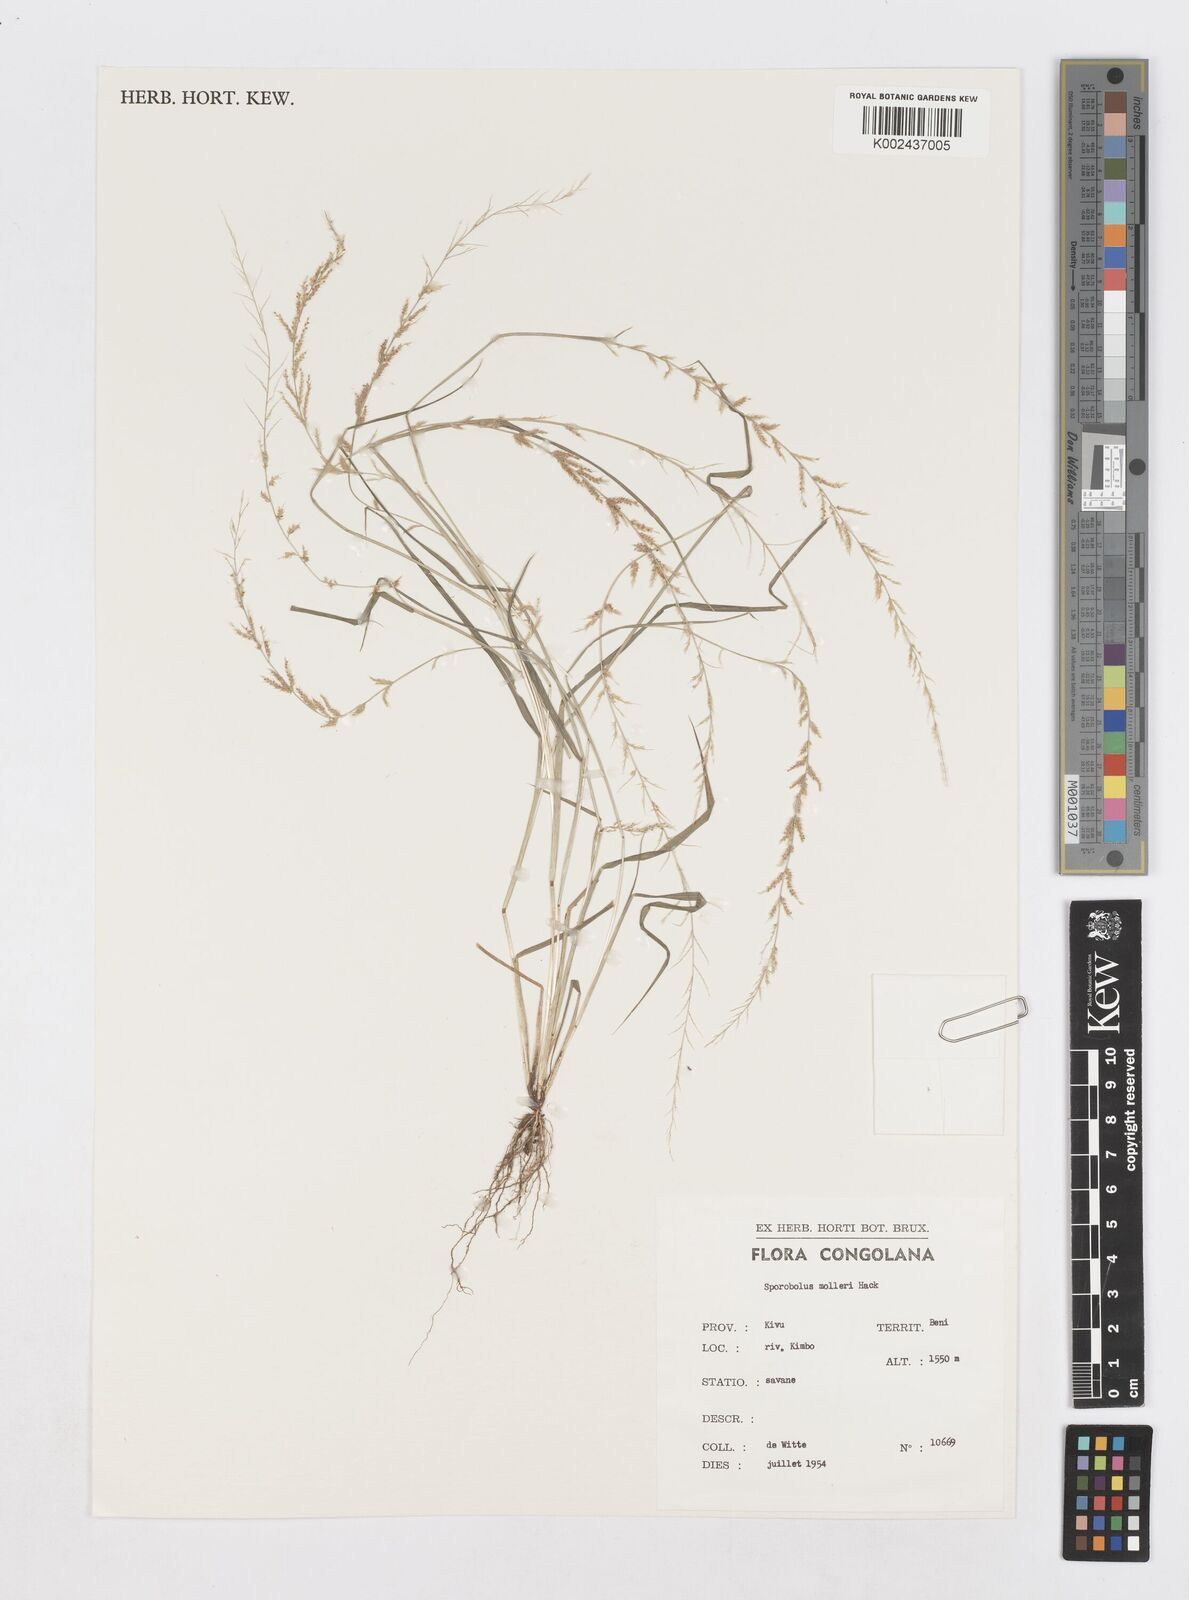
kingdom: Plantae
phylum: Tracheophyta
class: Liliopsida
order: Poales
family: Poaceae
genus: Sporobolus
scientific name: Sporobolus molleri
